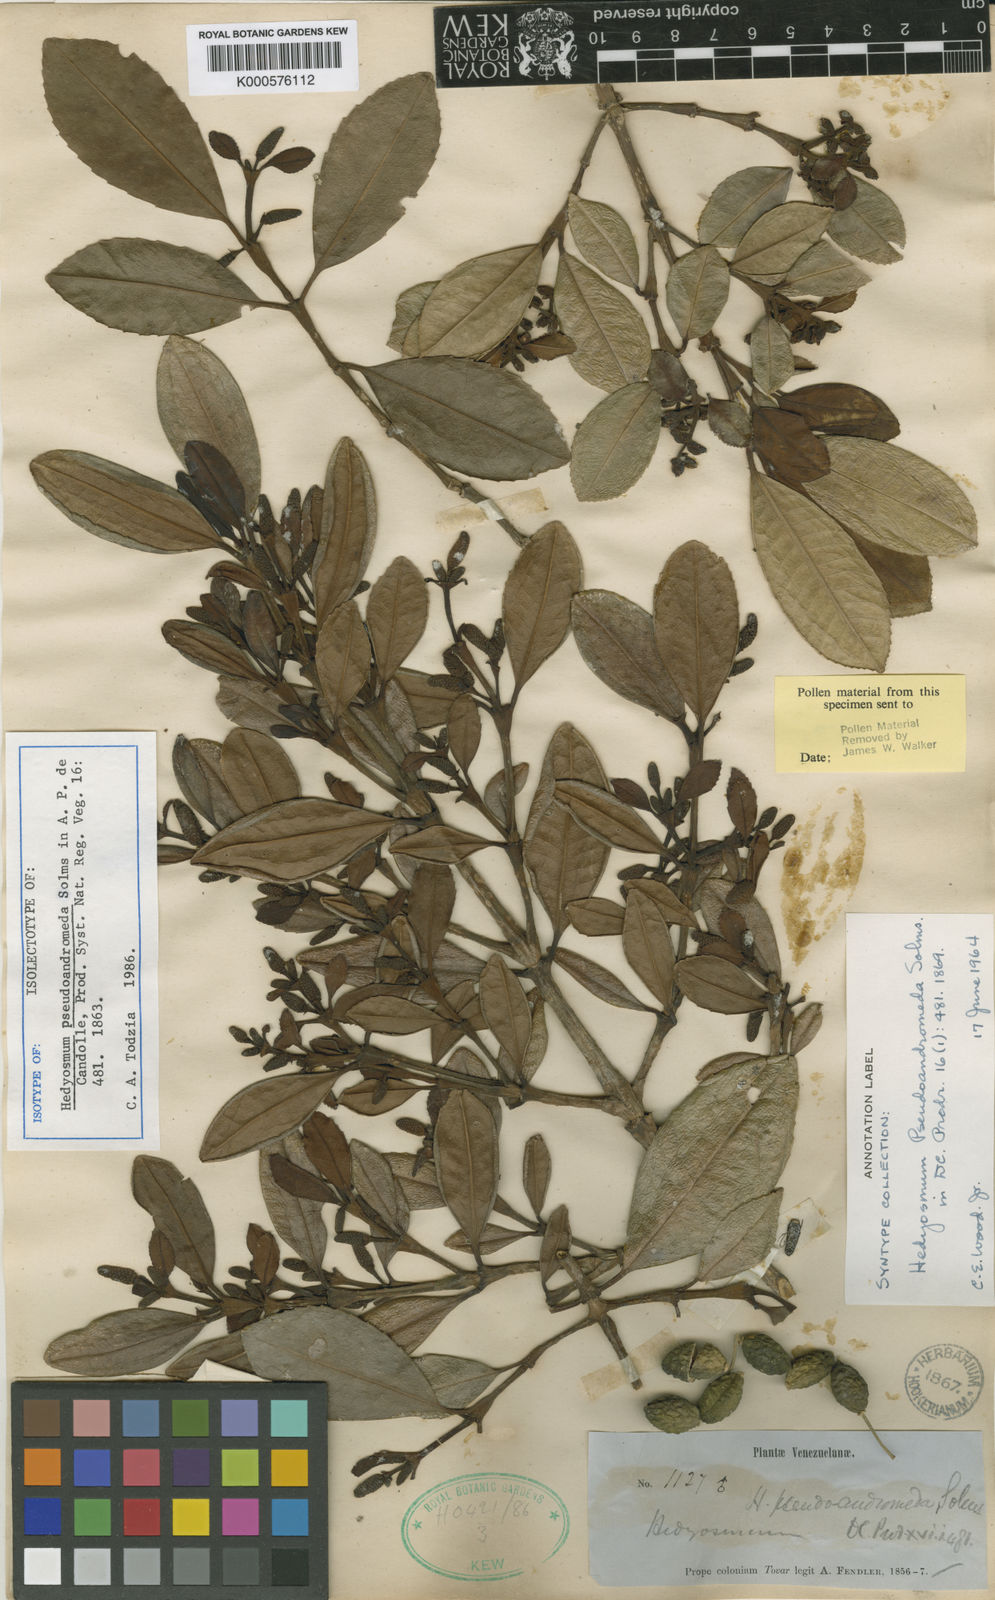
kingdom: Plantae
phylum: Tracheophyta
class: Magnoliopsida
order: Chloranthales
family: Chloranthaceae
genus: Hedyosmum
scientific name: Hedyosmum pseudoandromeda
